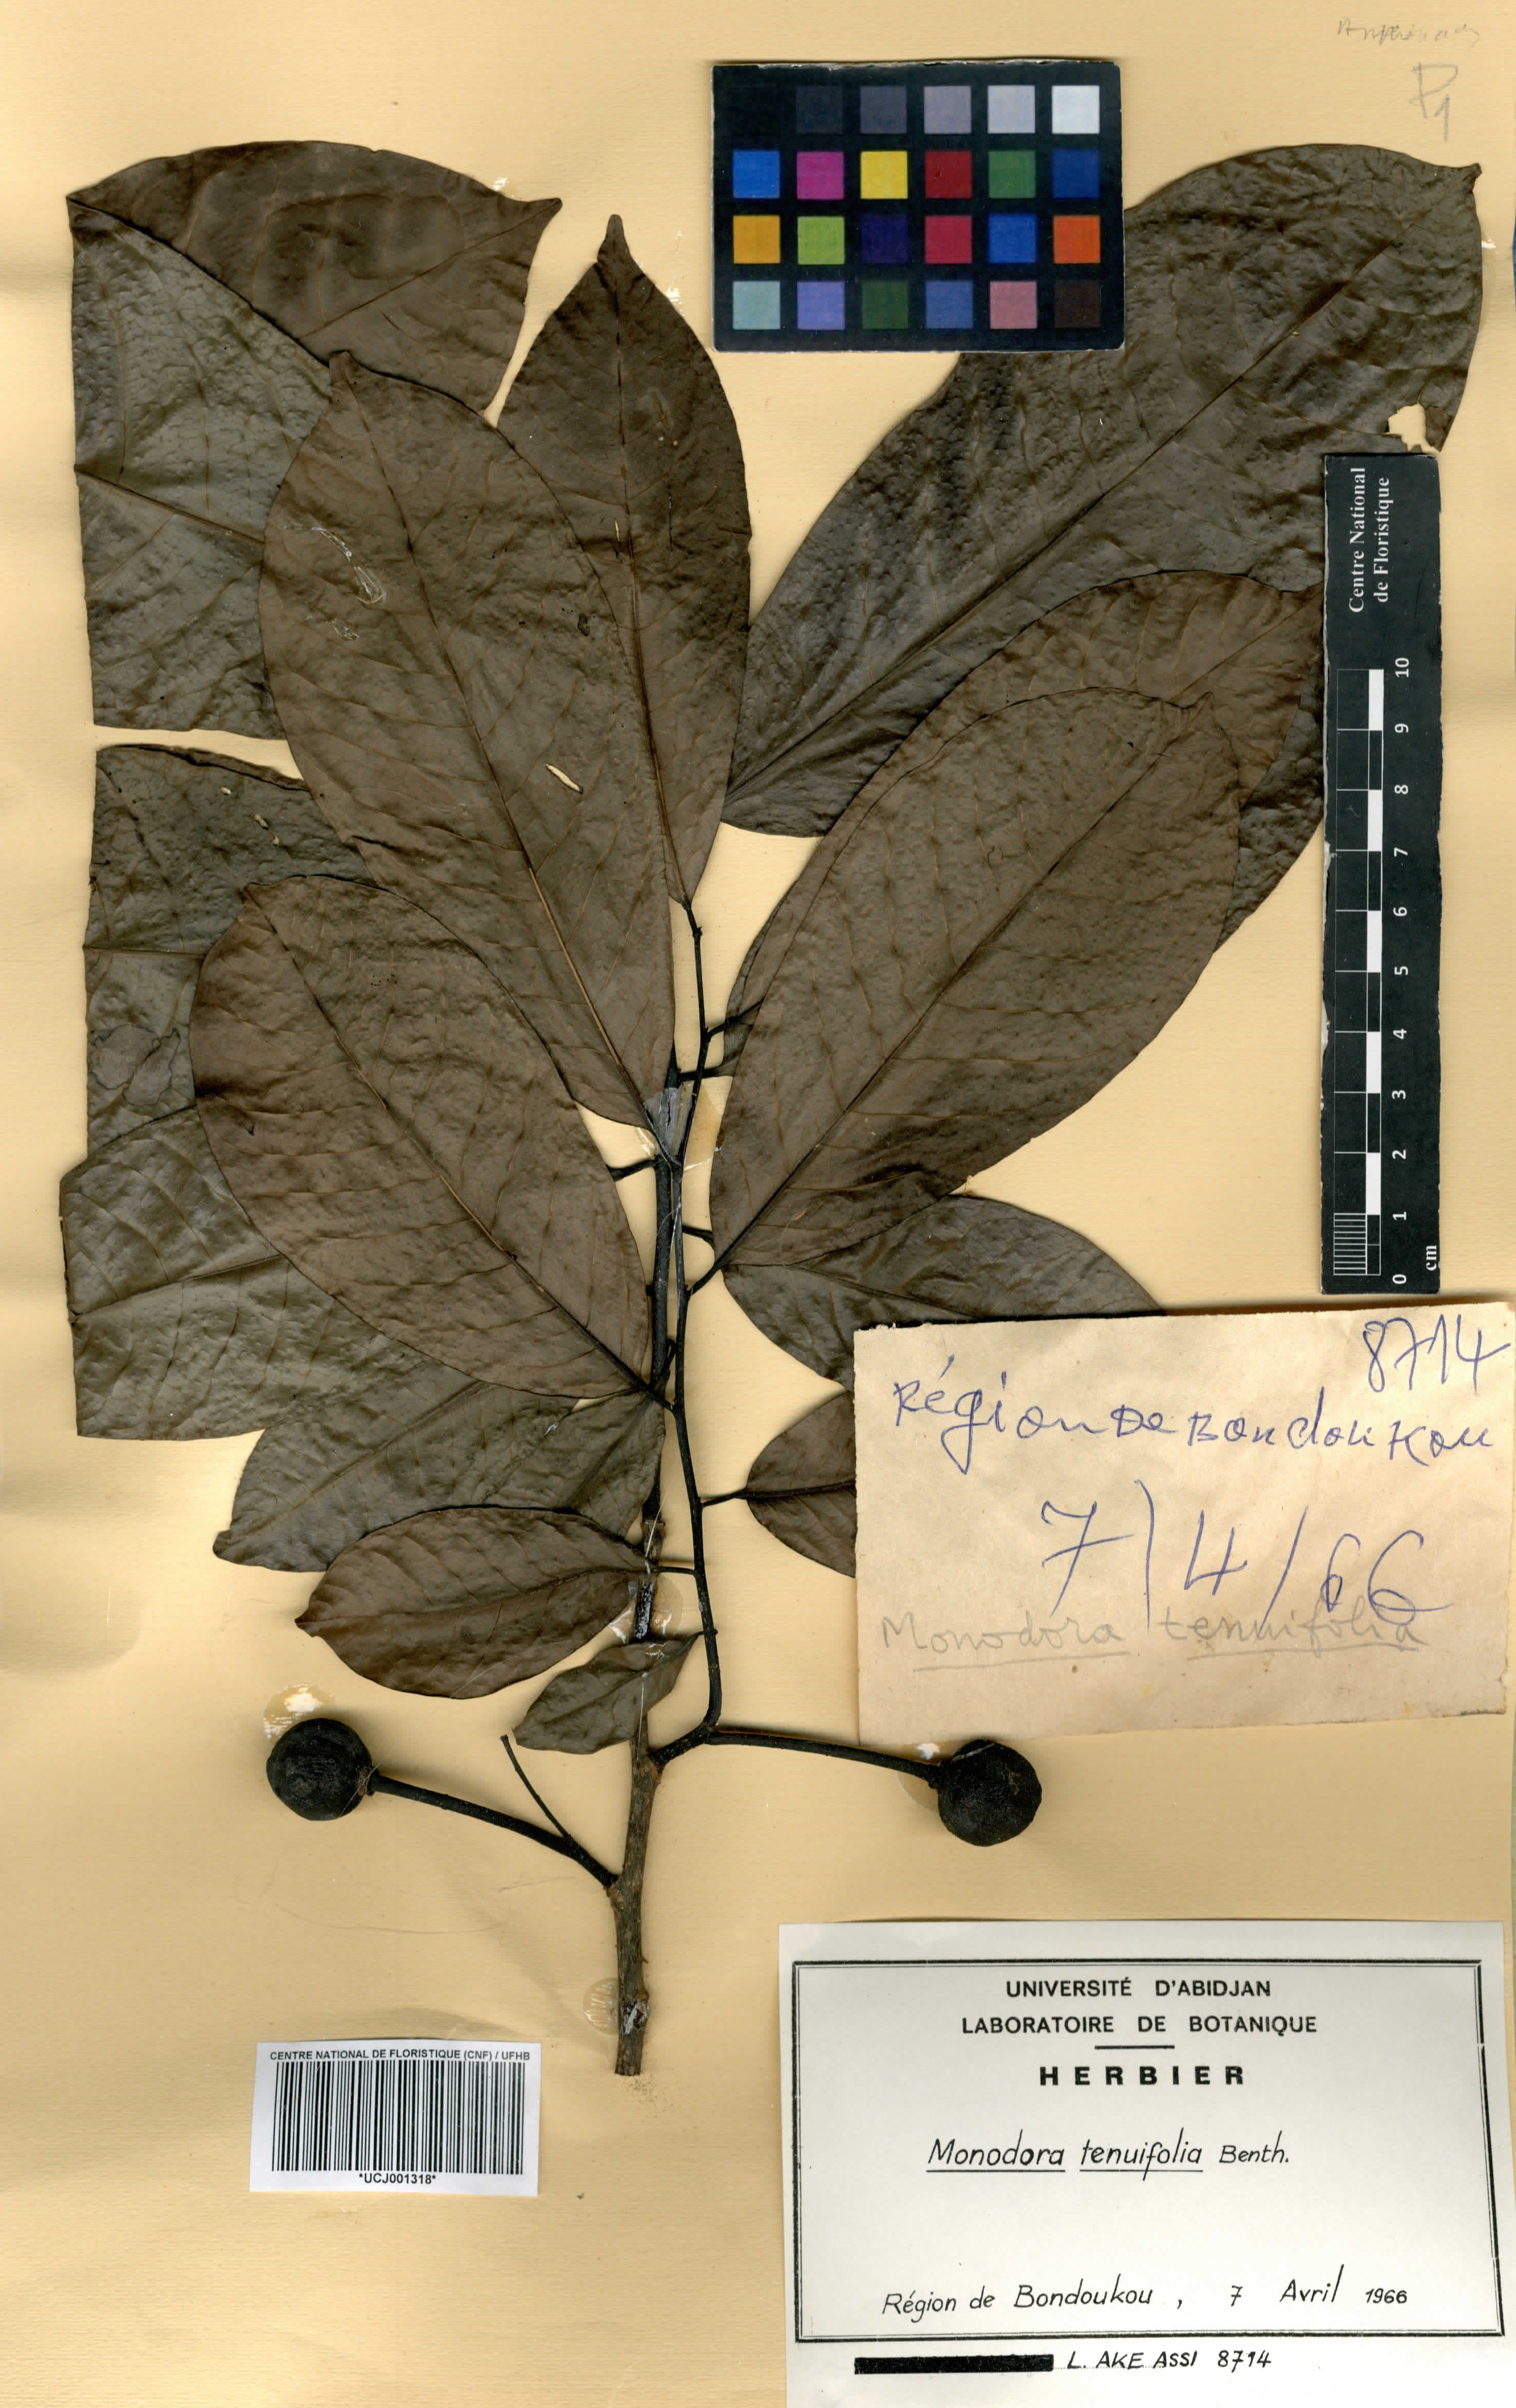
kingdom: Plantae
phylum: Tracheophyta
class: Magnoliopsida
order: Magnoliales
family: Annonaceae
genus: Monodora
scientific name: Monodora tenuifolia
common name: Orchidtree
